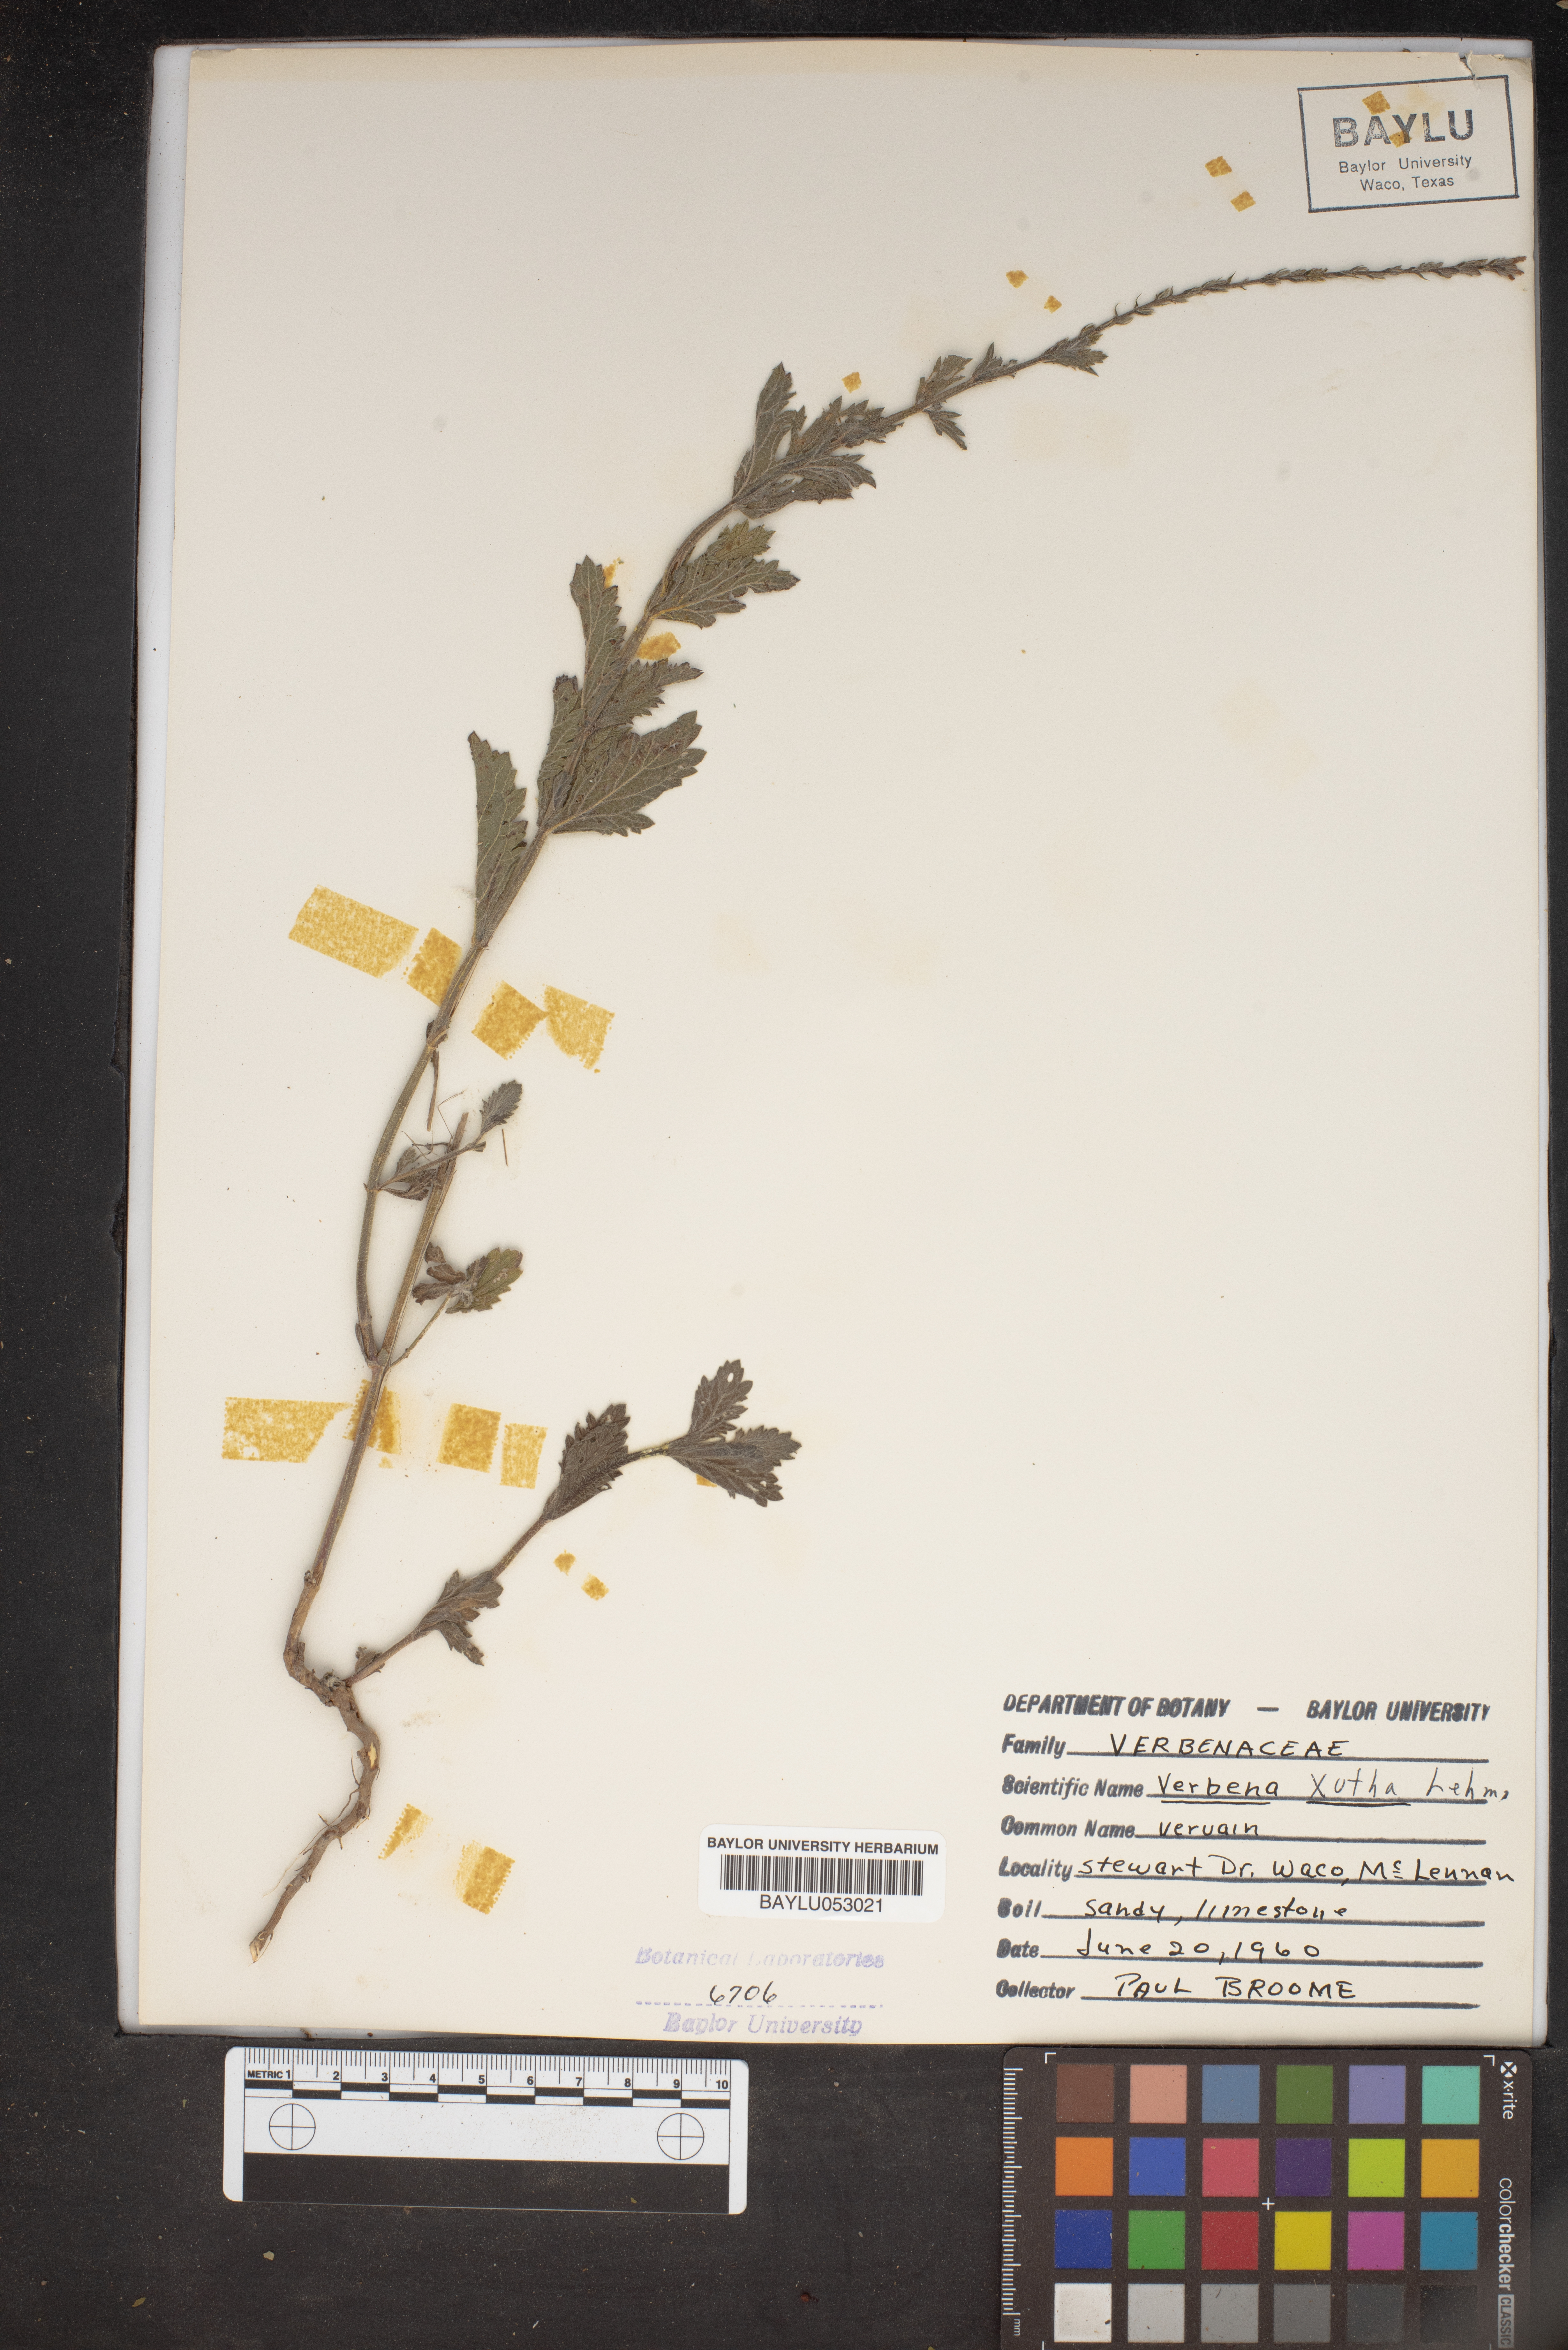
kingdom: Plantae
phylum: Tracheophyta
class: Magnoliopsida
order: Lamiales
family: Verbenaceae
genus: Verbena
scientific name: Verbena xutha
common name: Gulf vervain
